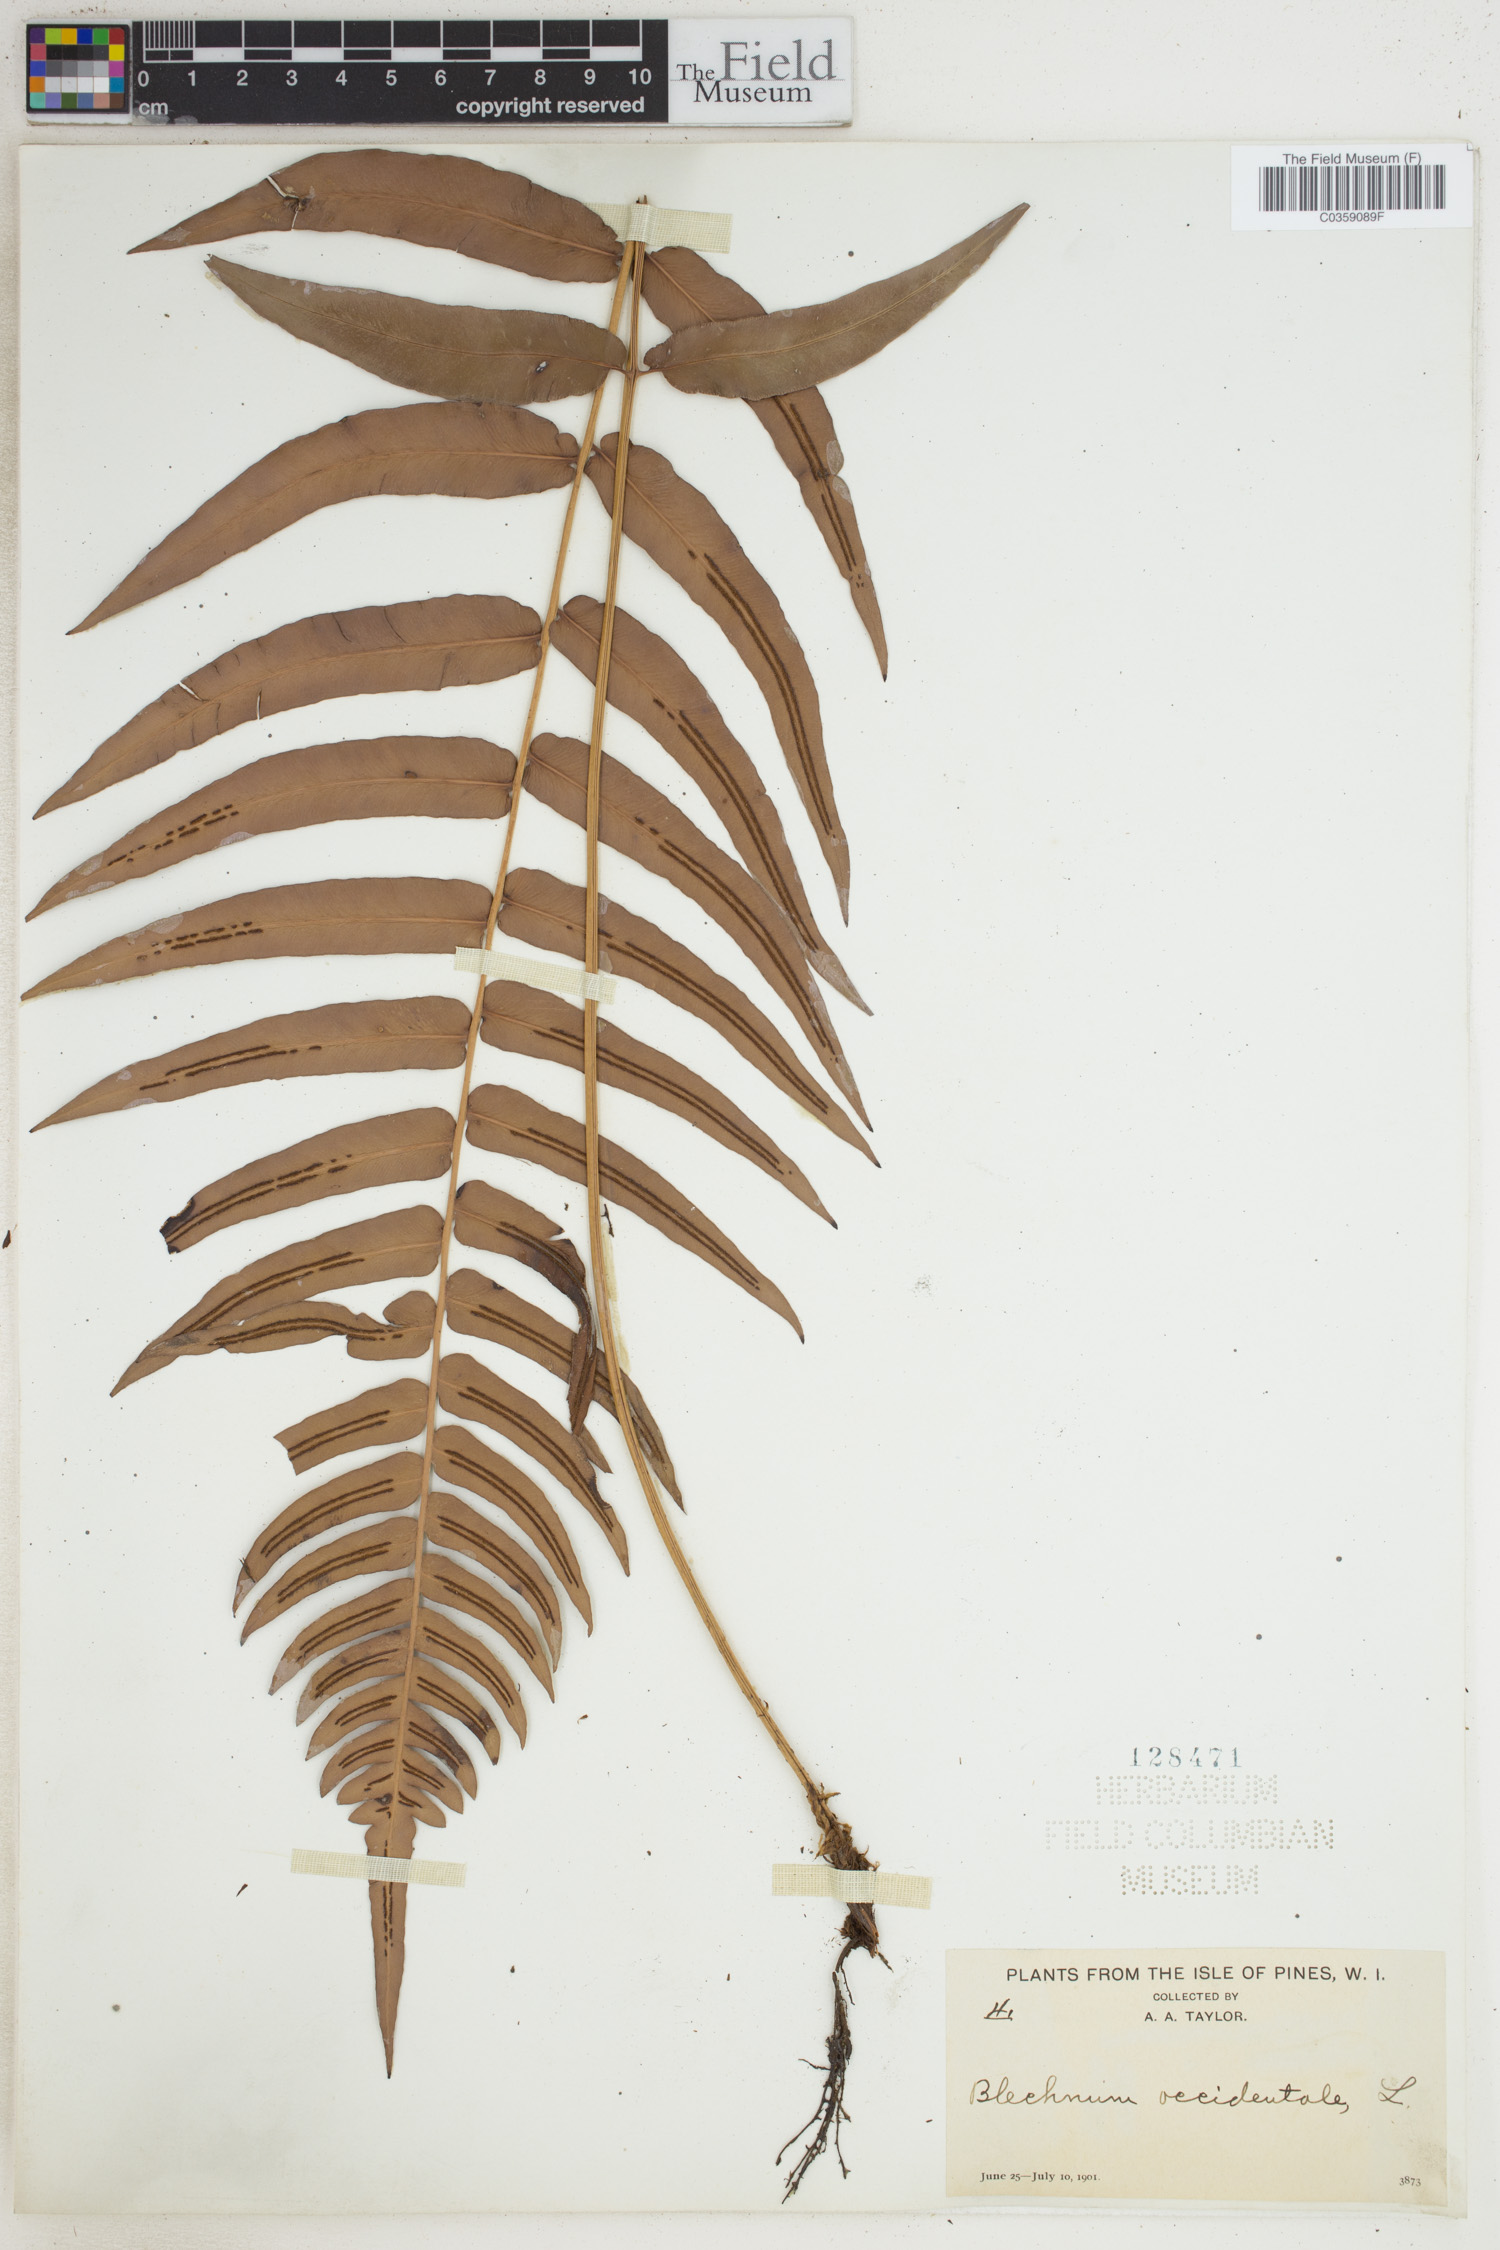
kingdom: Plantae
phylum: Tracheophyta
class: Polypodiopsida
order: Polypodiales
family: Blechnaceae
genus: Blechnum
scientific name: Blechnum occidentale
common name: Hammock fern
